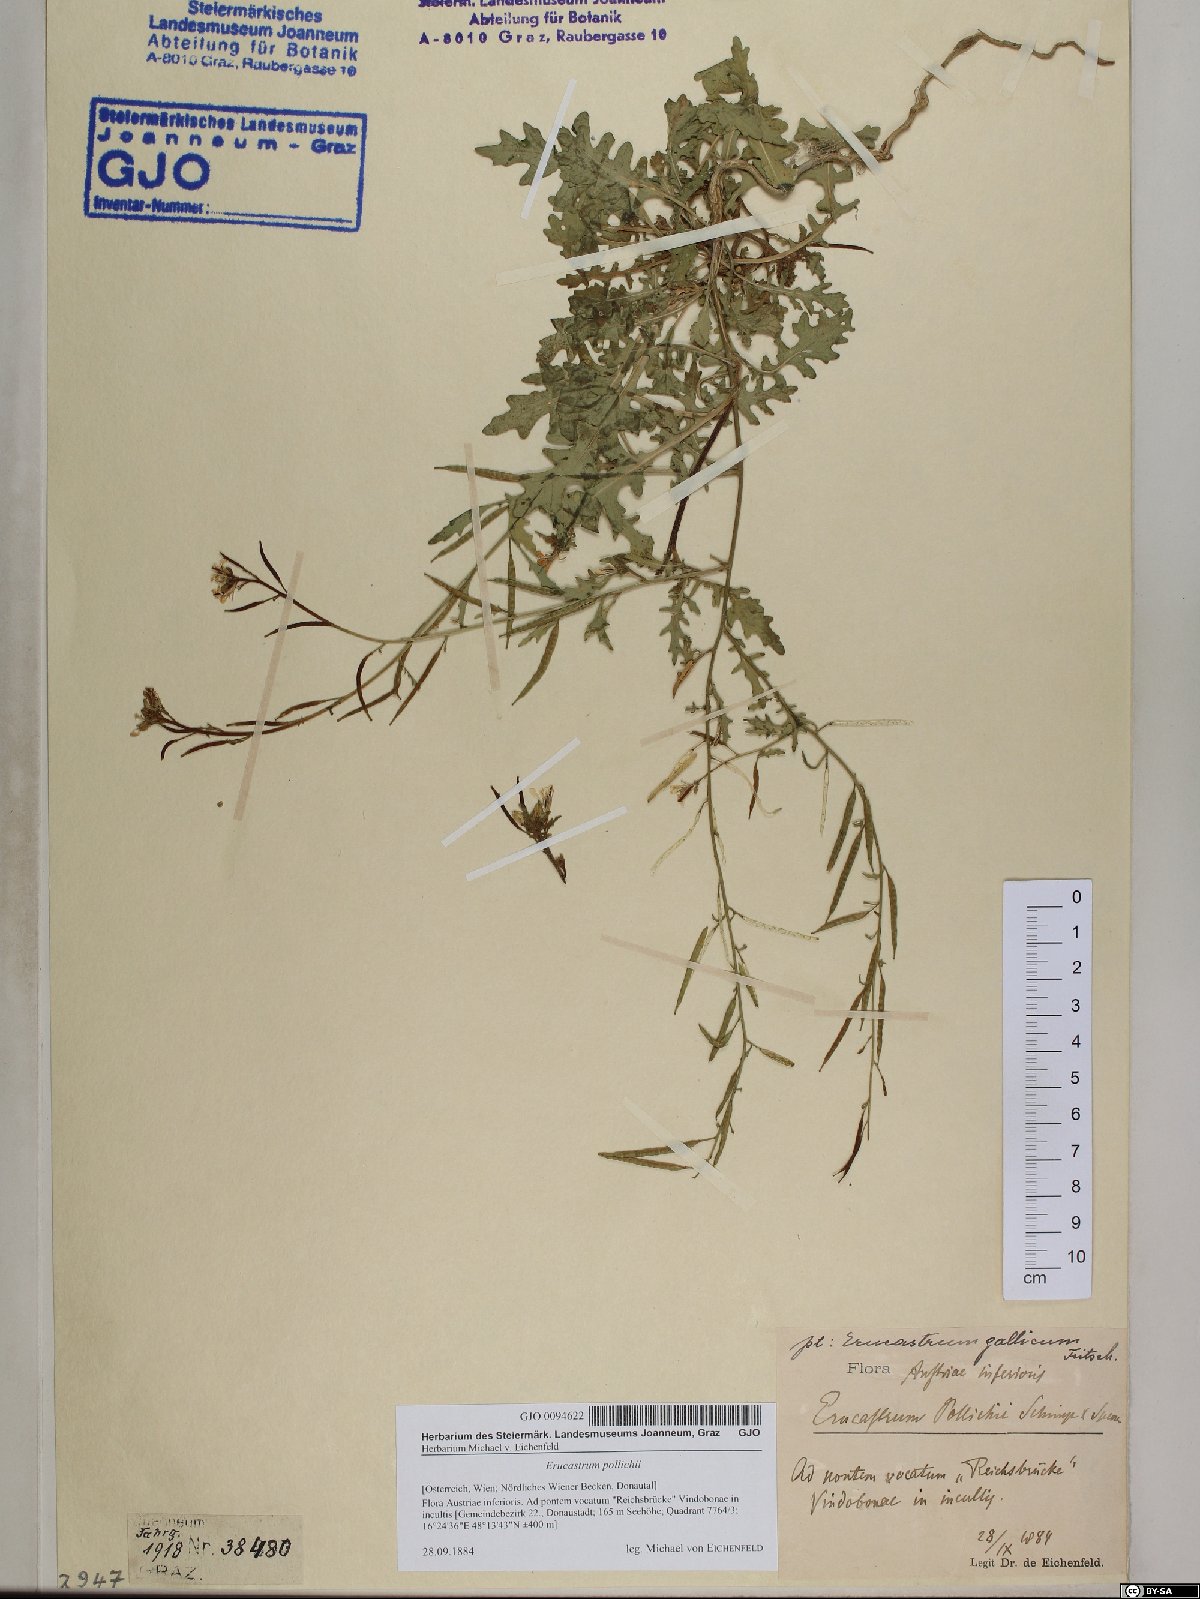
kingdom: Plantae
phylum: Tracheophyta
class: Magnoliopsida
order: Brassicales
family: Brassicaceae
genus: Erucastrum
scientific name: Erucastrum gallicum
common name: Hairy rocket
